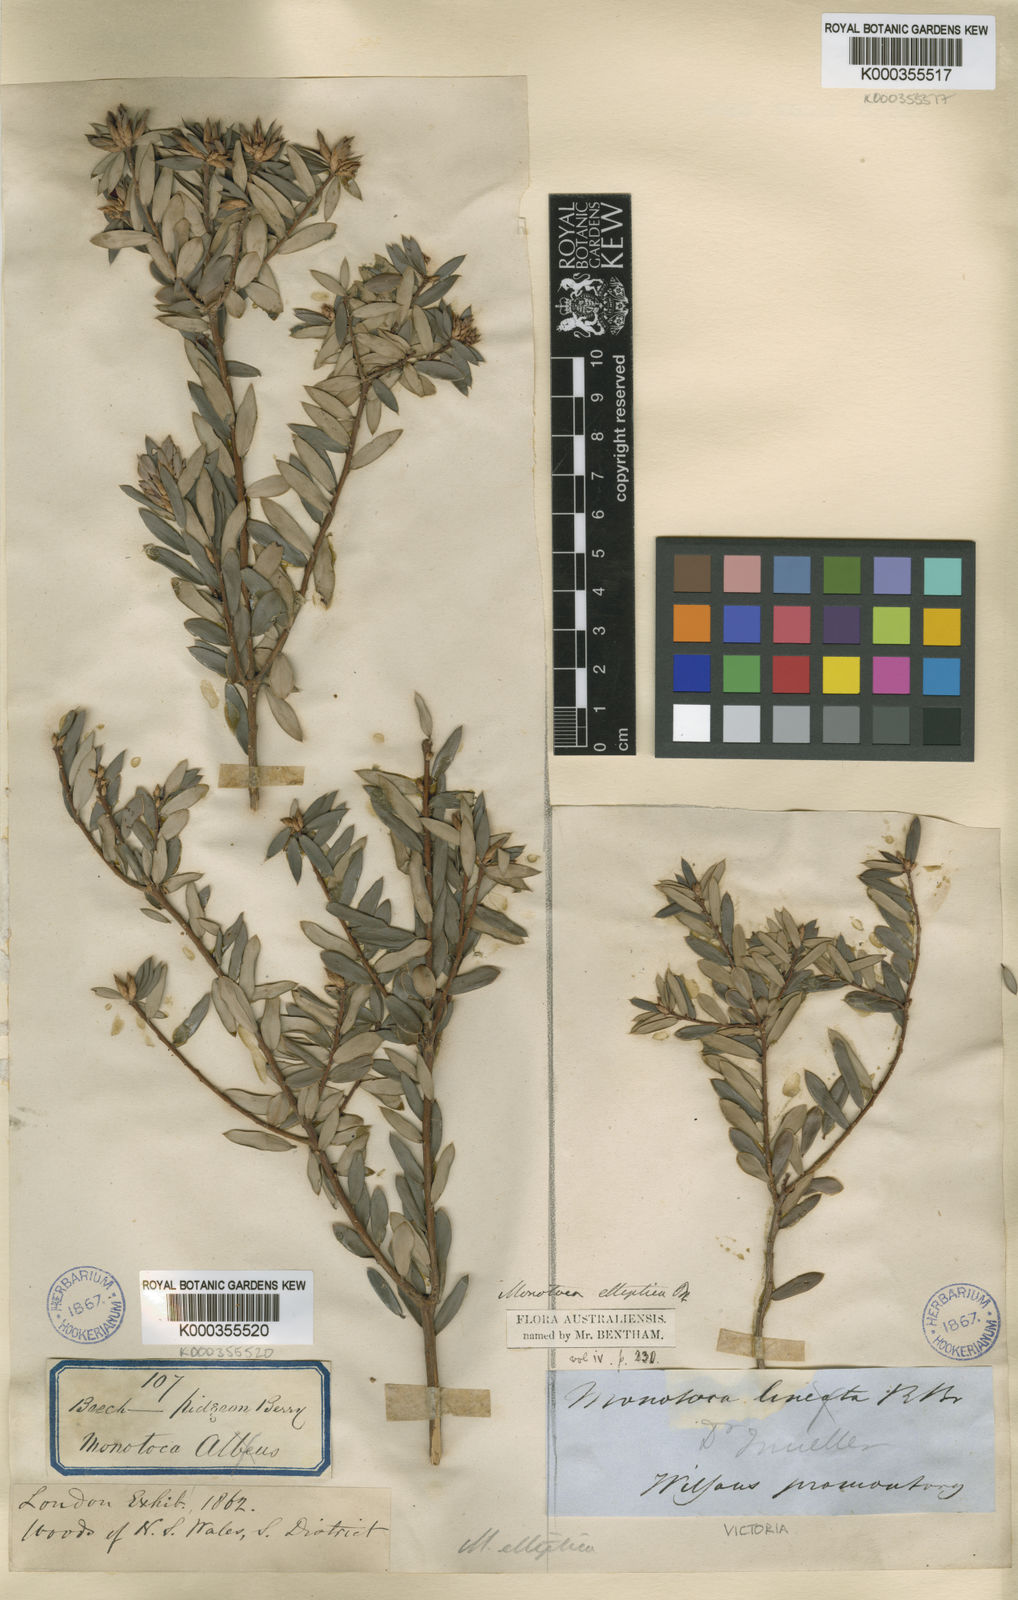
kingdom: Plantae
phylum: Tracheophyta
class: Magnoliopsida
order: Ericales
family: Ericaceae
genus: Monotoca
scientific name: Monotoca elliptica
